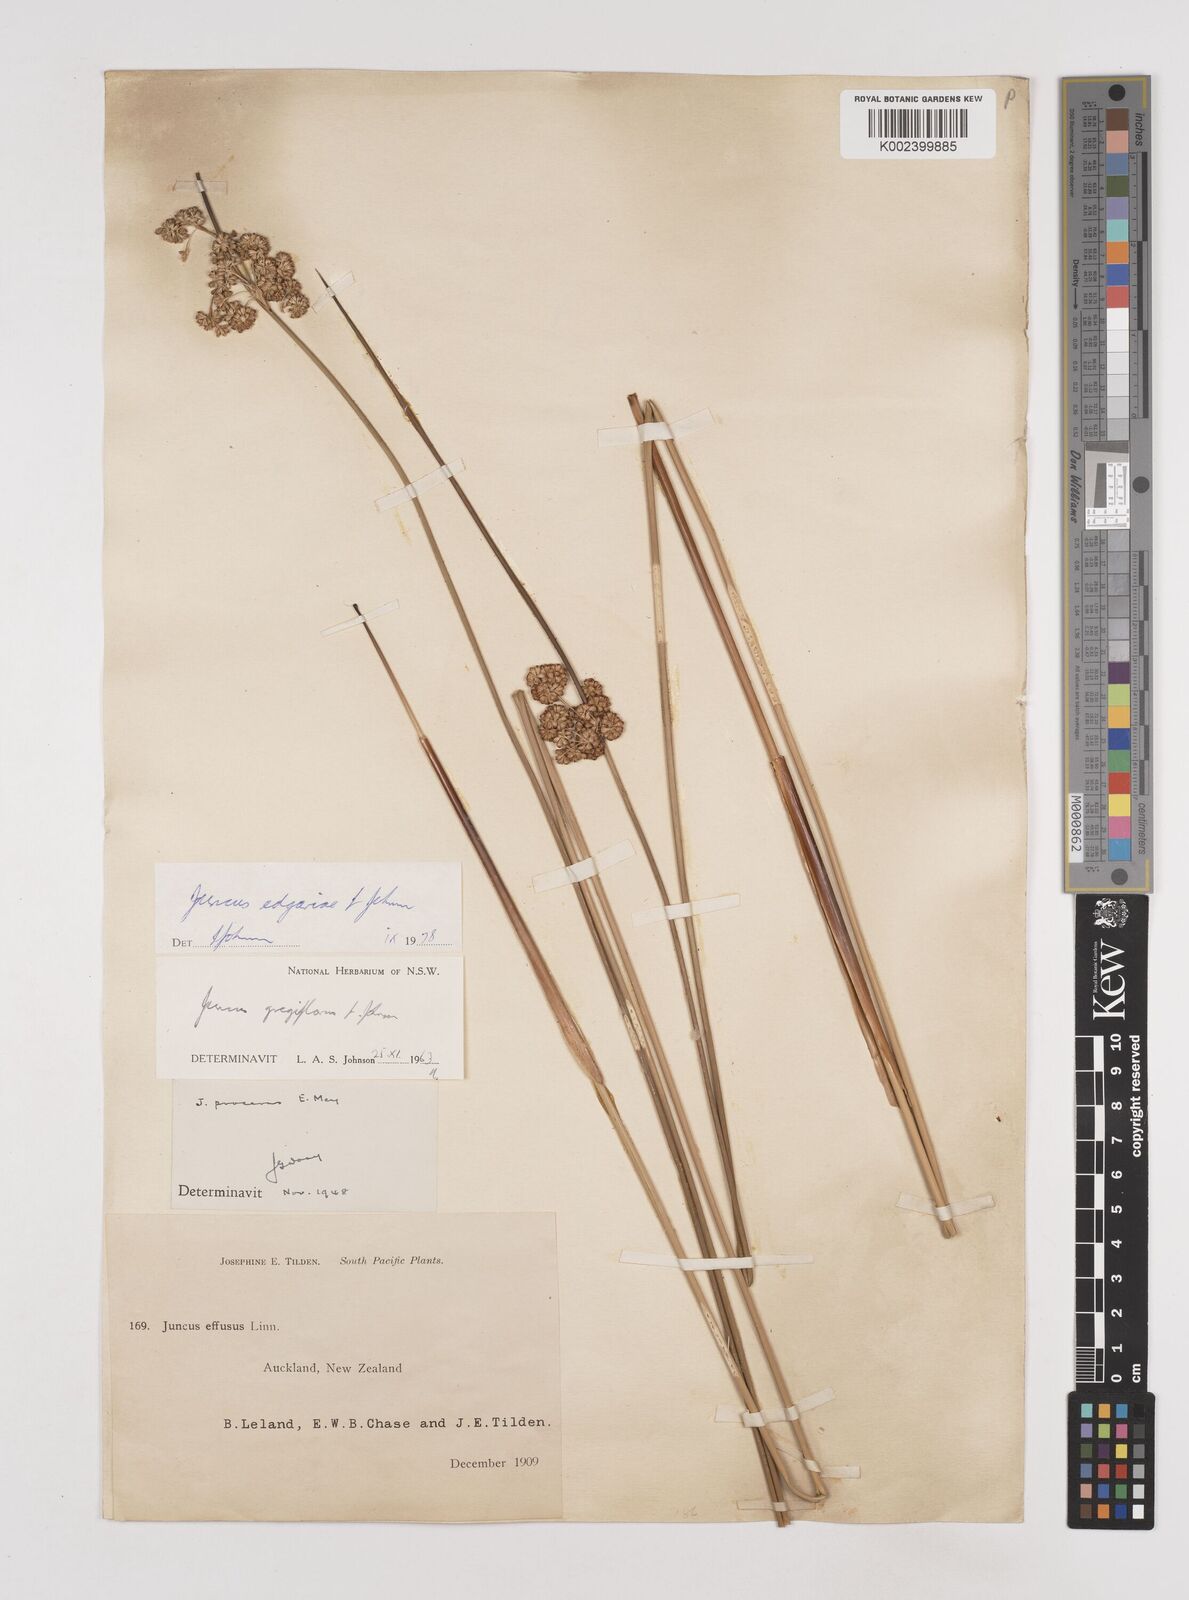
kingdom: Plantae
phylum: Tracheophyta
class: Liliopsida
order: Poales
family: Juncaceae
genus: Juncus
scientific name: Juncus gregiflorus
